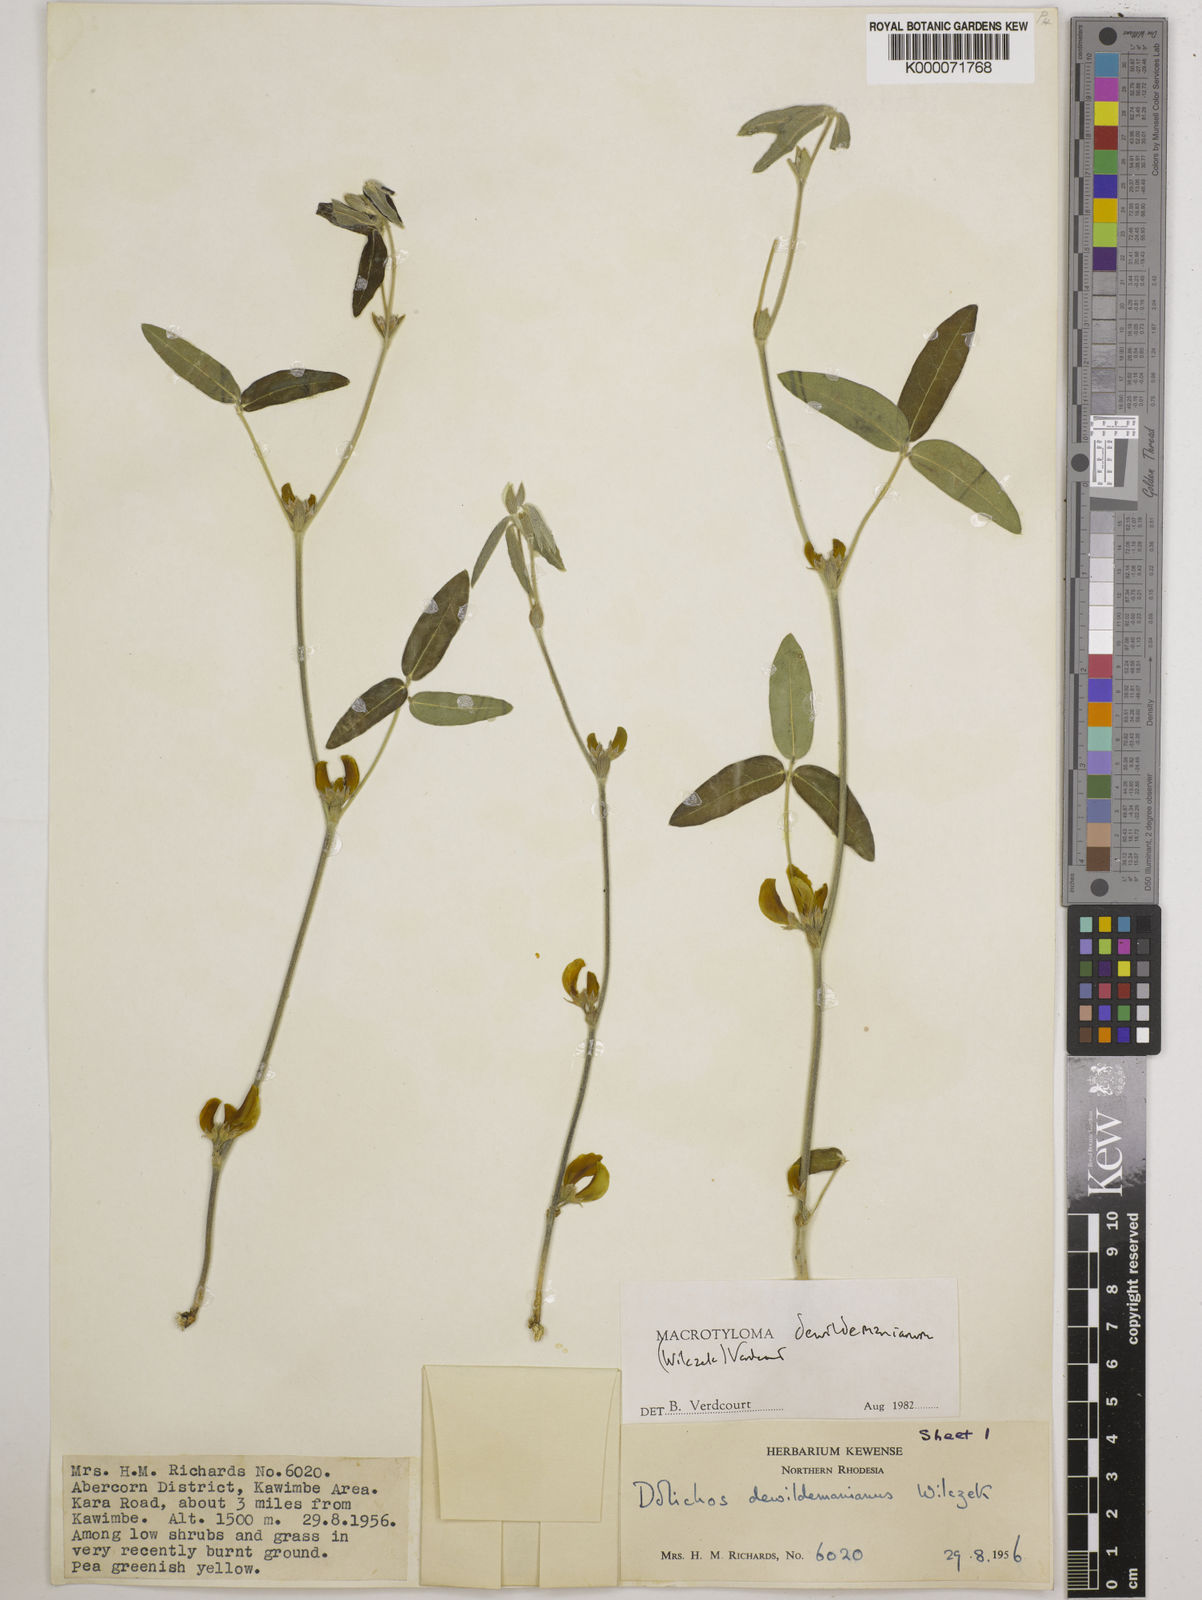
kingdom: Plantae
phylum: Tracheophyta
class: Magnoliopsida
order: Fabales
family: Fabaceae
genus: Macrotyloma
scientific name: Macrotyloma dewildemanianum
